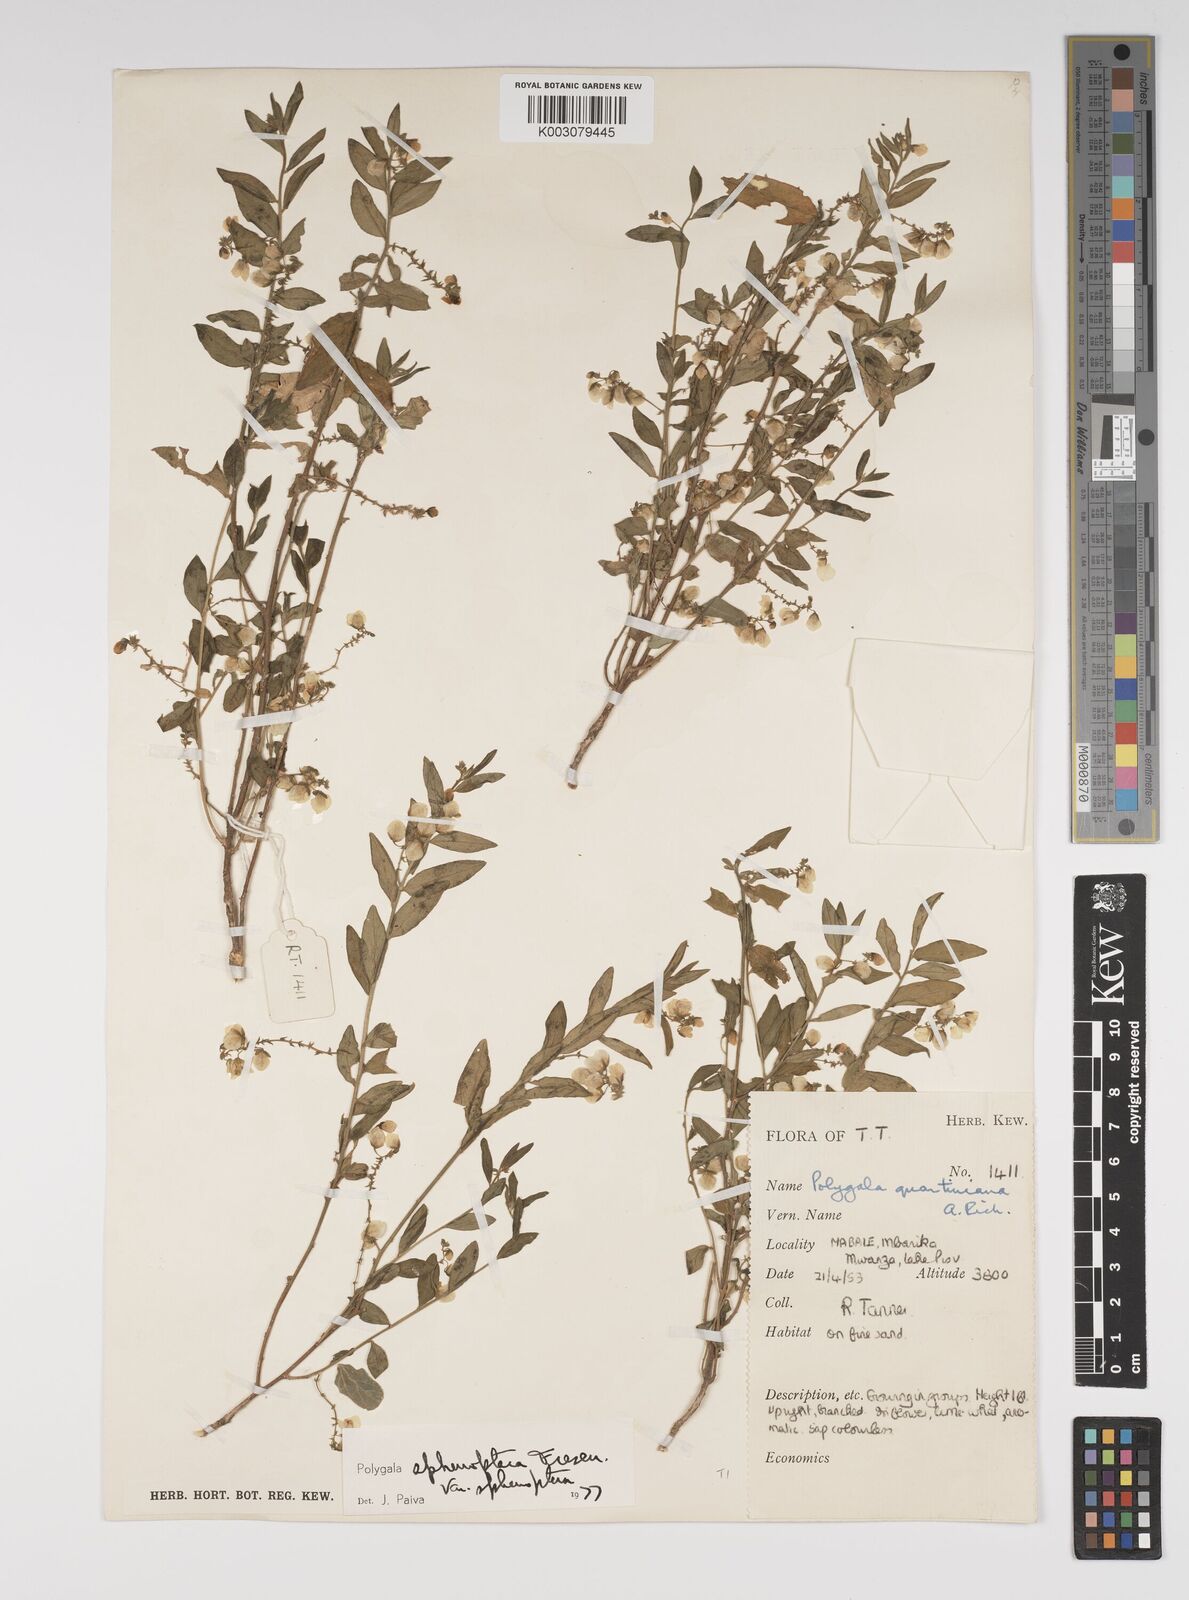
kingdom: Plantae
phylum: Tracheophyta
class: Magnoliopsida
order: Fabales
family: Polygalaceae
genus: Polygala
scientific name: Polygala sphenoptera
